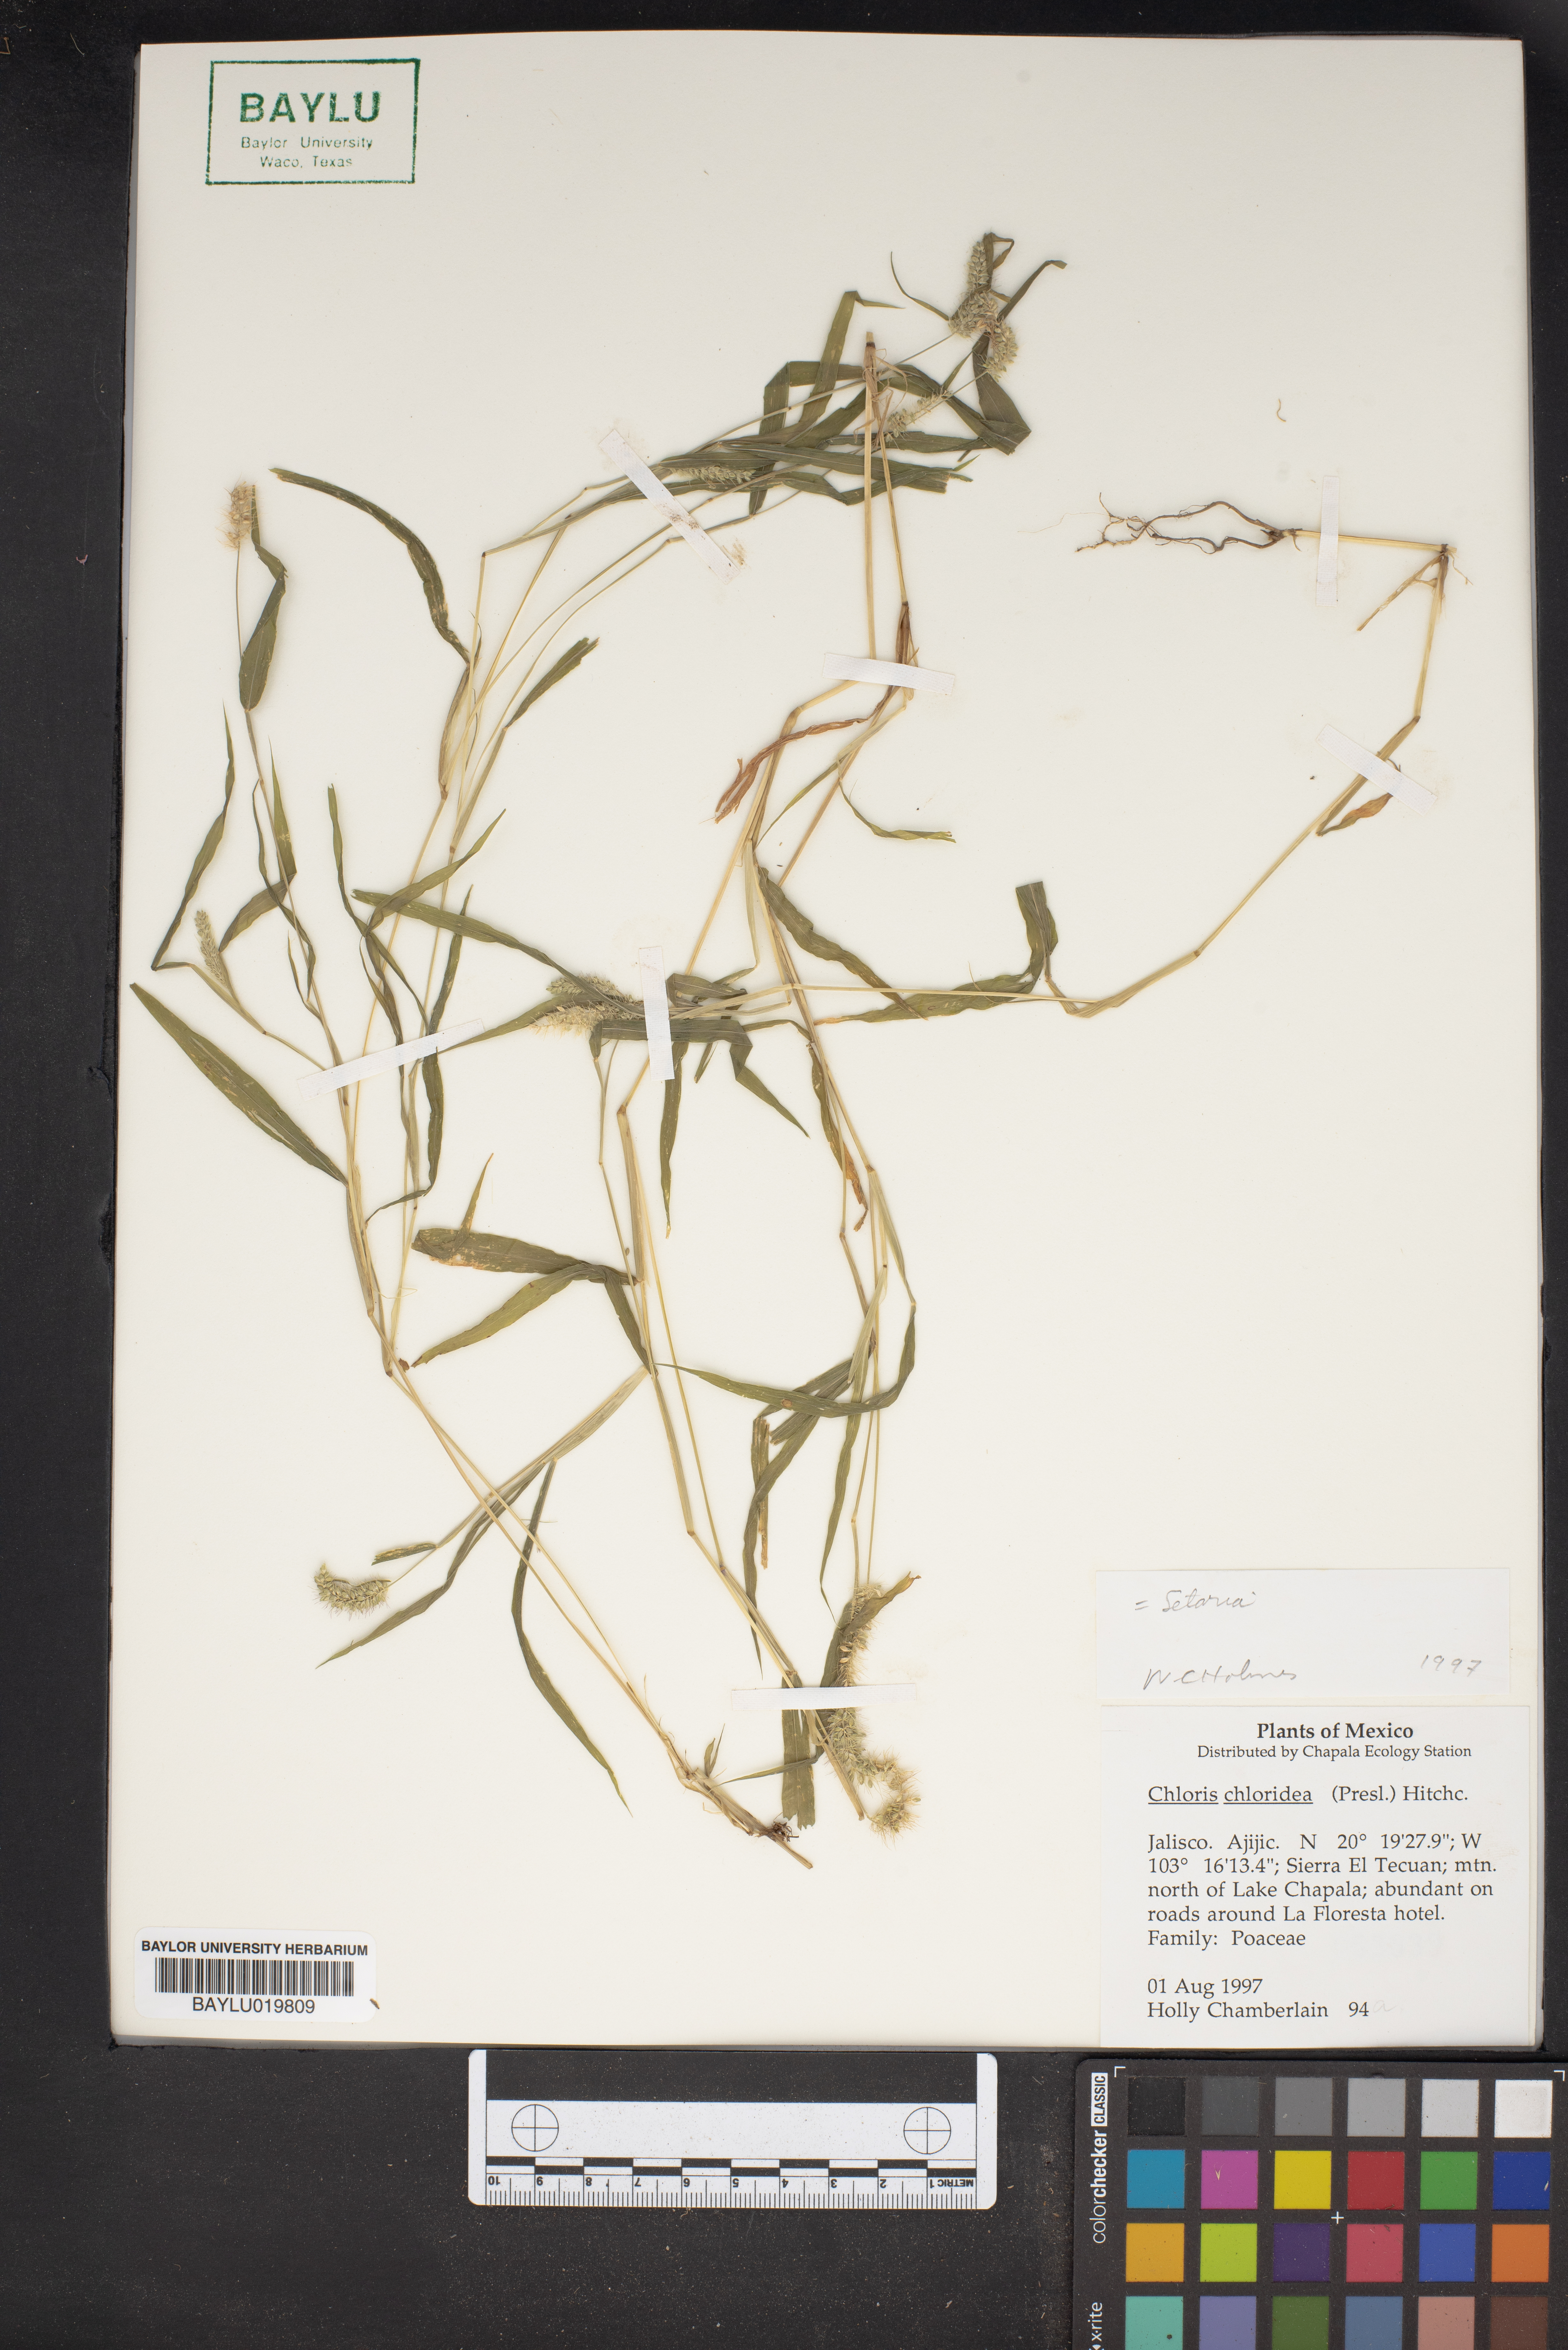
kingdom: Plantae
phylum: Tracheophyta
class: Liliopsida
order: Poales
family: Poaceae
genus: Setaria
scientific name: Setaria
